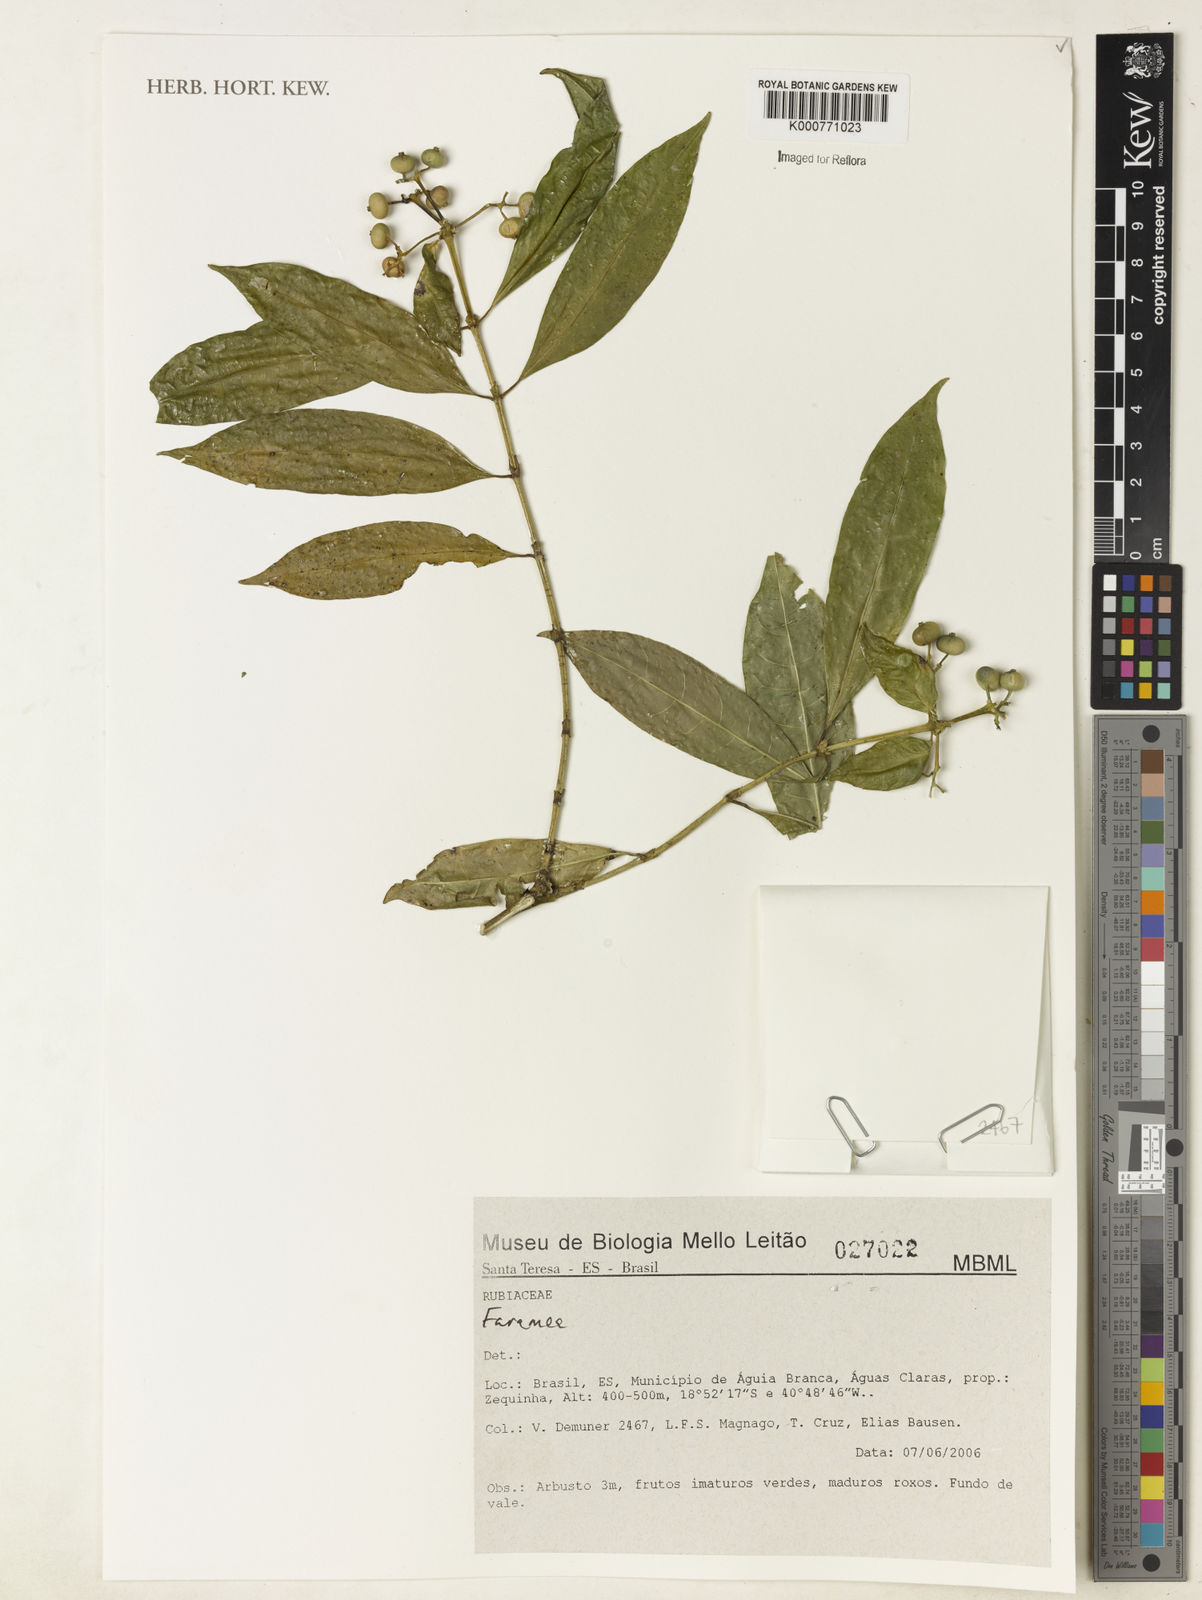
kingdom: Plantae
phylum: Tracheophyta
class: Magnoliopsida
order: Gentianales
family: Rubiaceae
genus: Faramea
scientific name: Faramea
